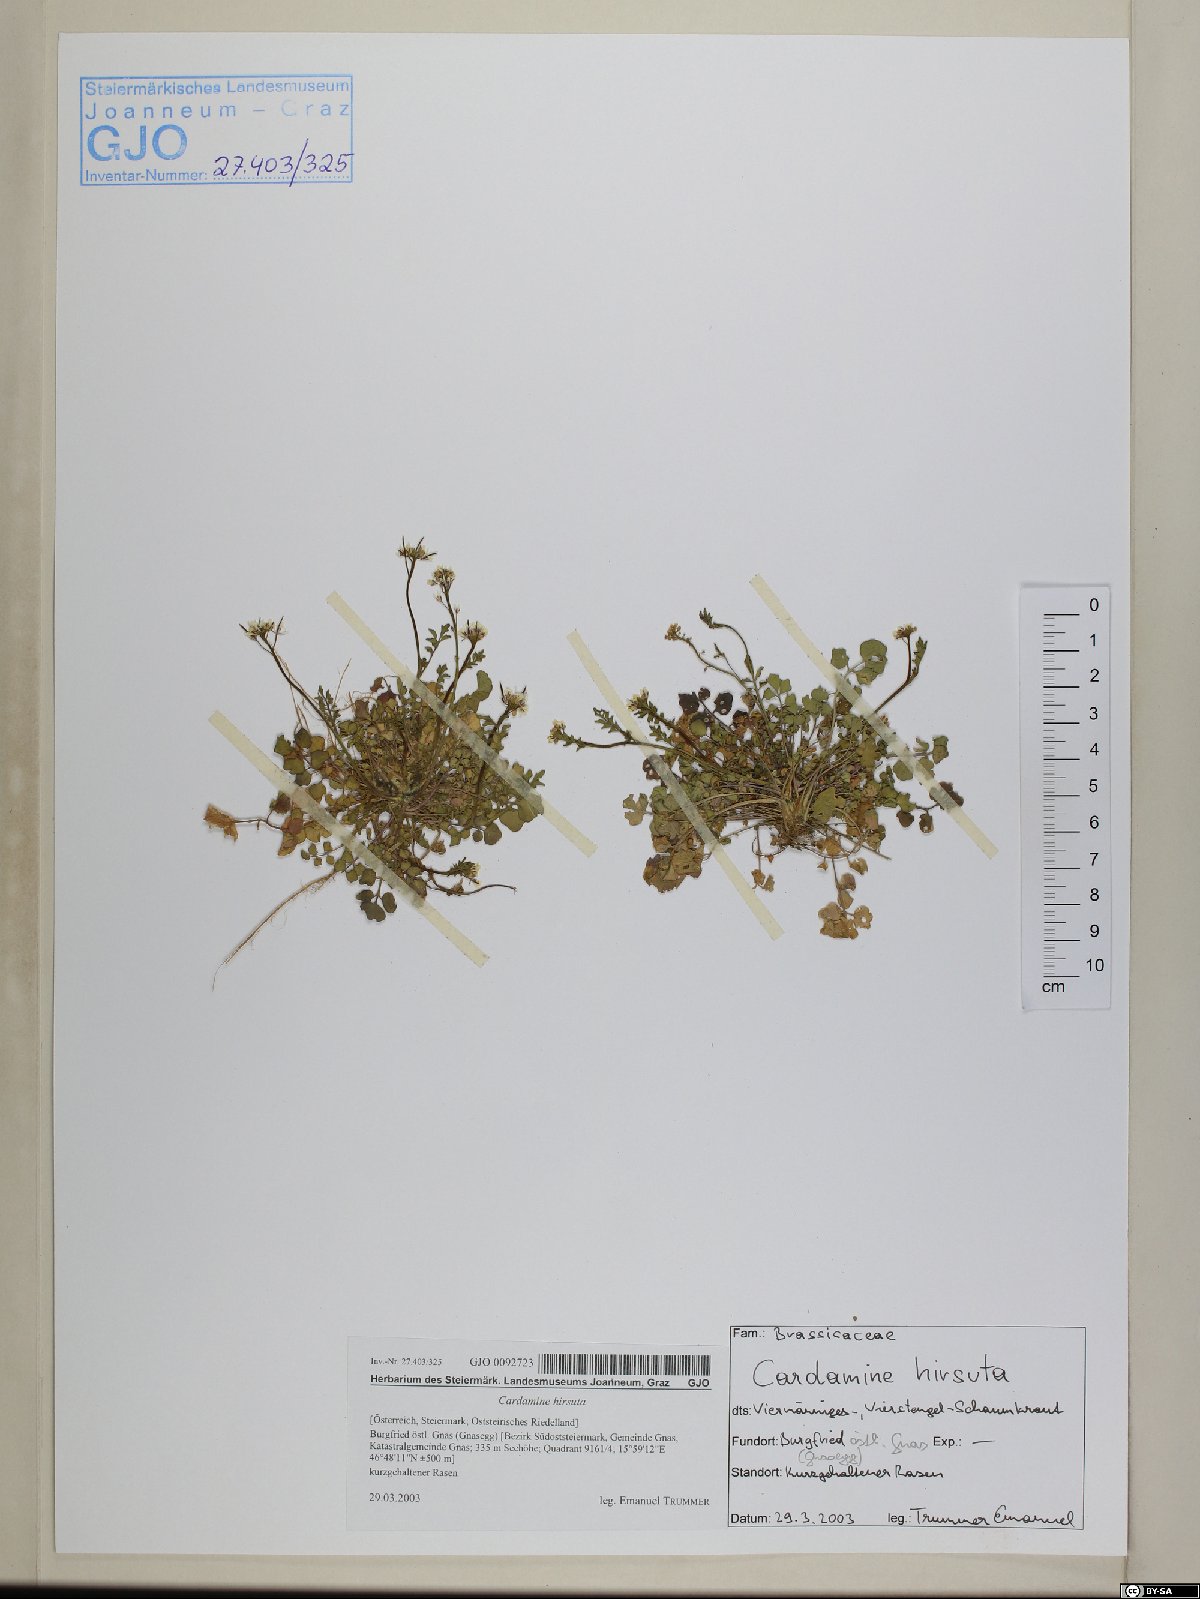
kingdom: Plantae
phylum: Tracheophyta
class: Magnoliopsida
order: Brassicales
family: Brassicaceae
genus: Cardamine
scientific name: Cardamine hirsuta
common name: Hairy bittercress
